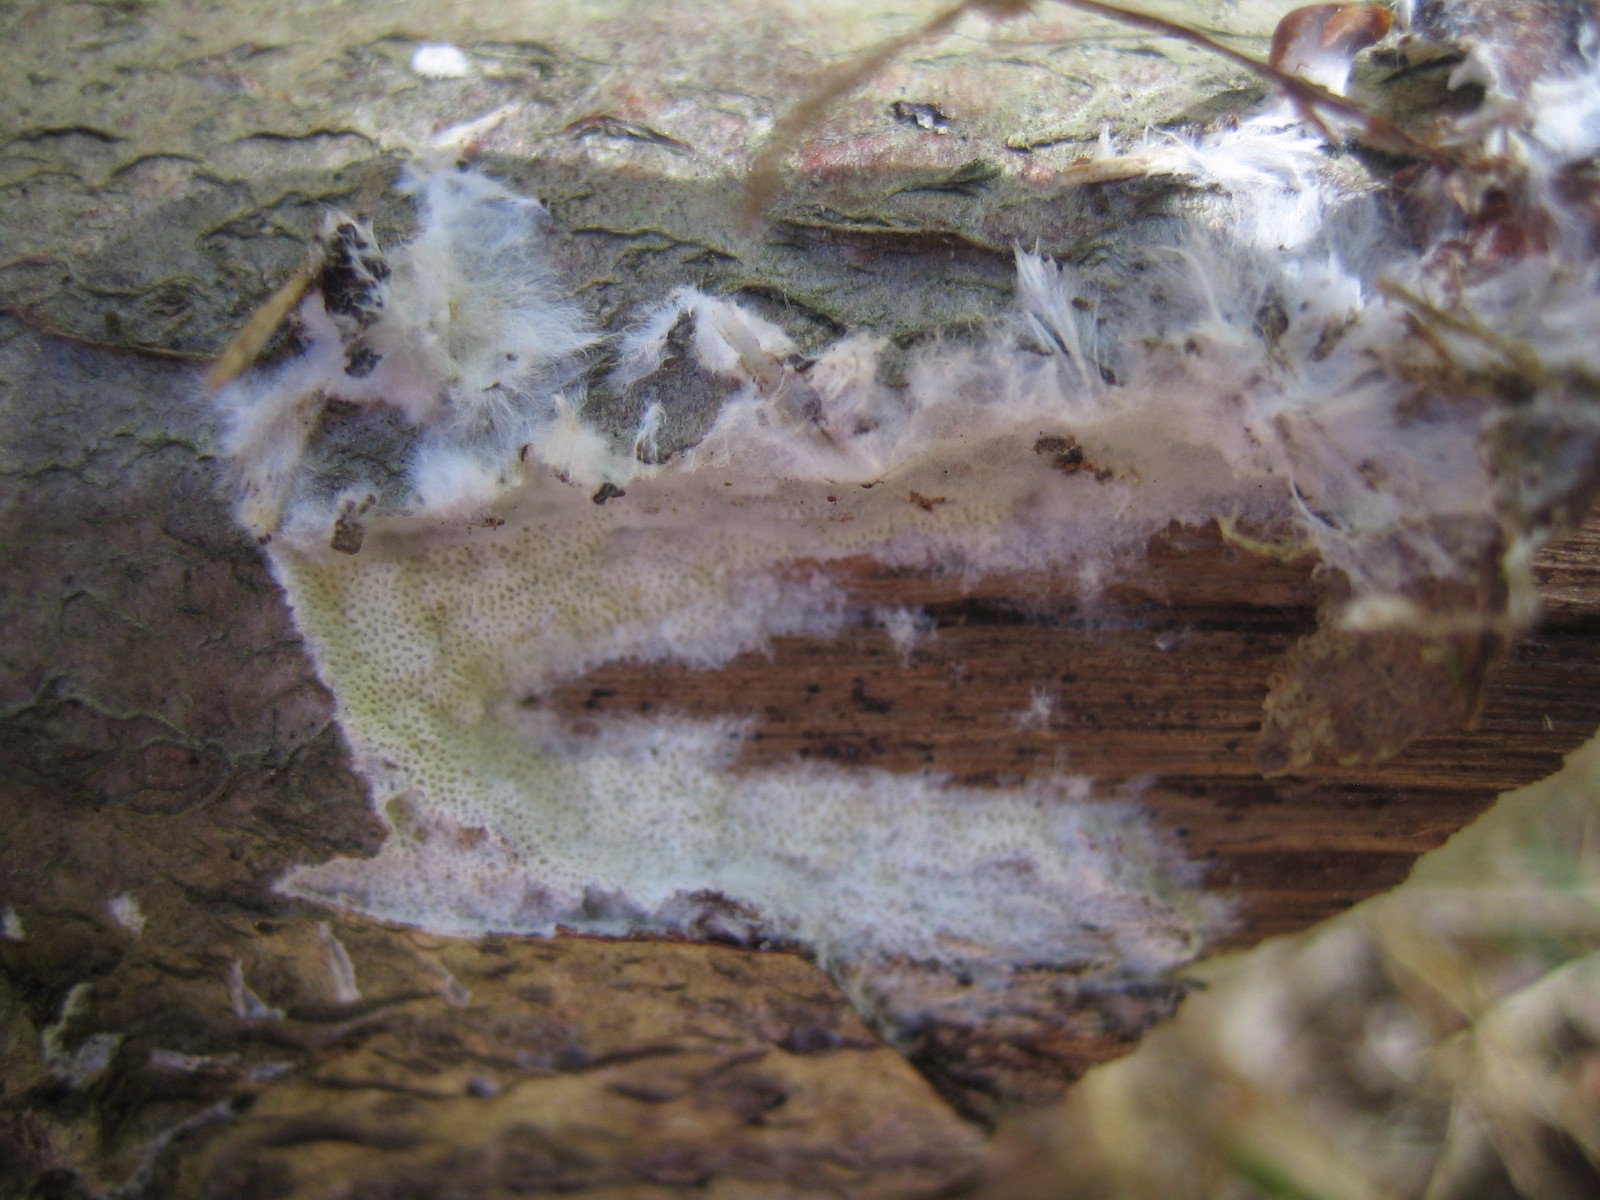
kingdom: Fungi
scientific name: Fungi
